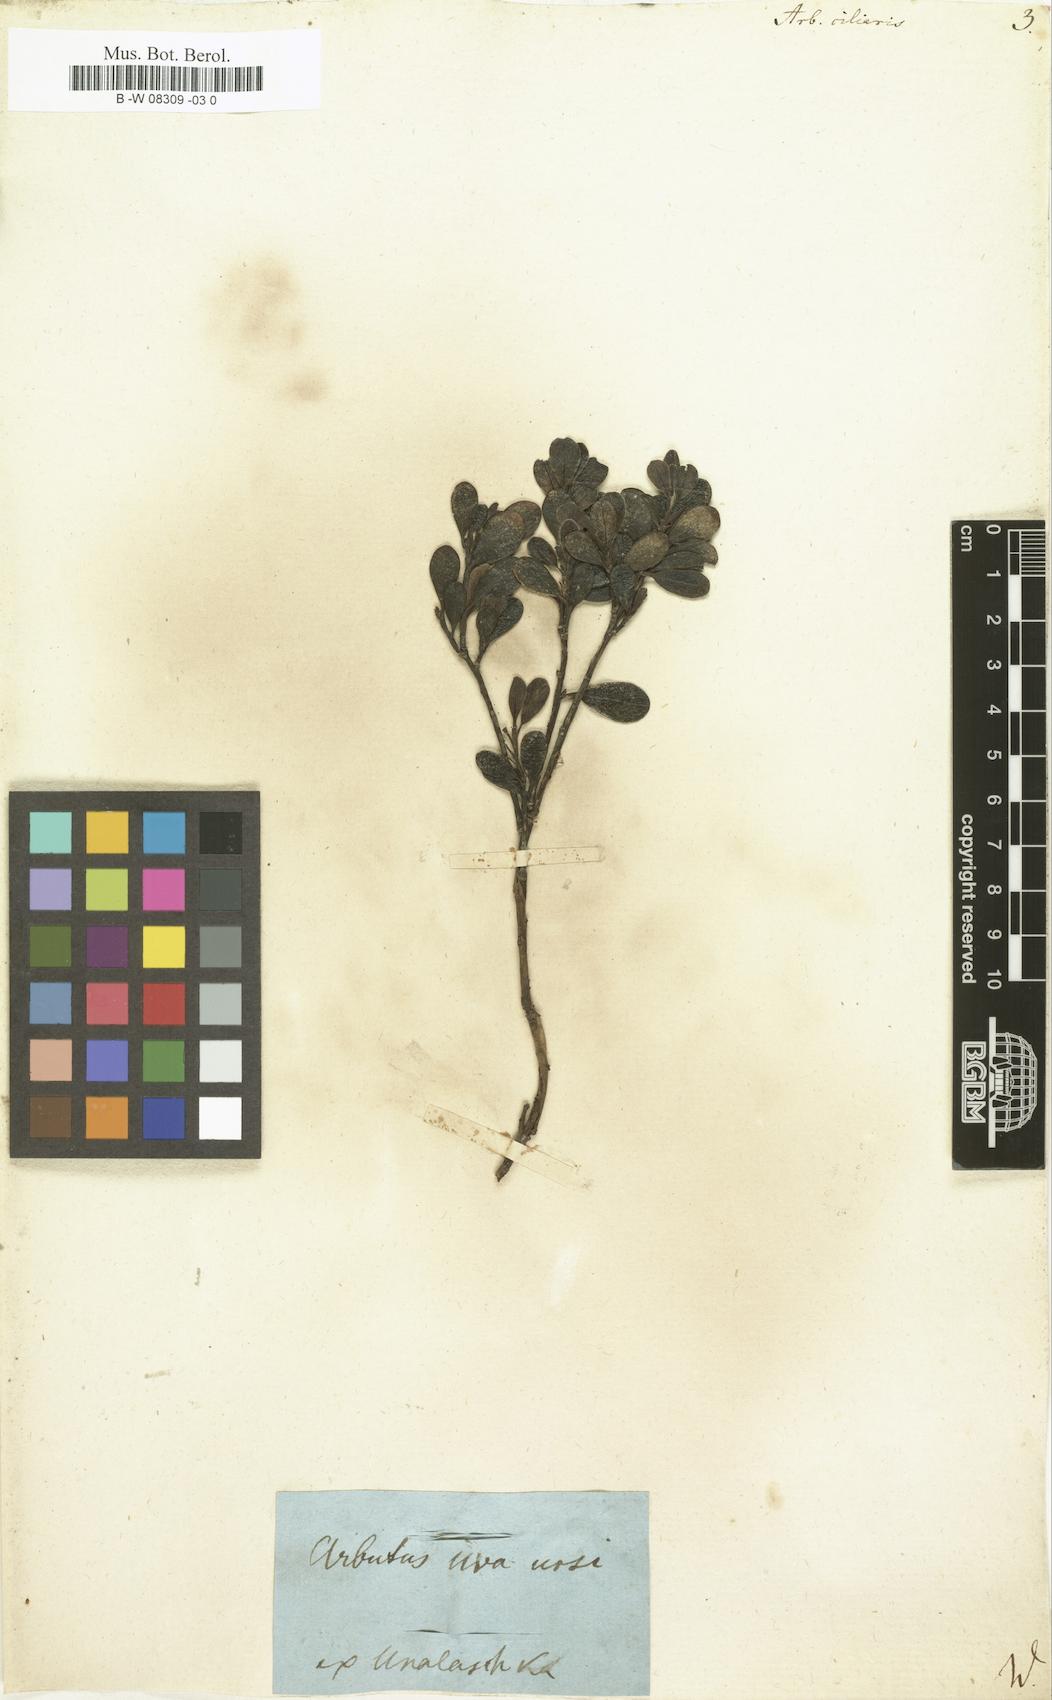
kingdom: Plantae
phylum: Tracheophyta
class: Magnoliopsida
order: Ericales
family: Ericaceae
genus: Arbutus
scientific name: Arbutus
